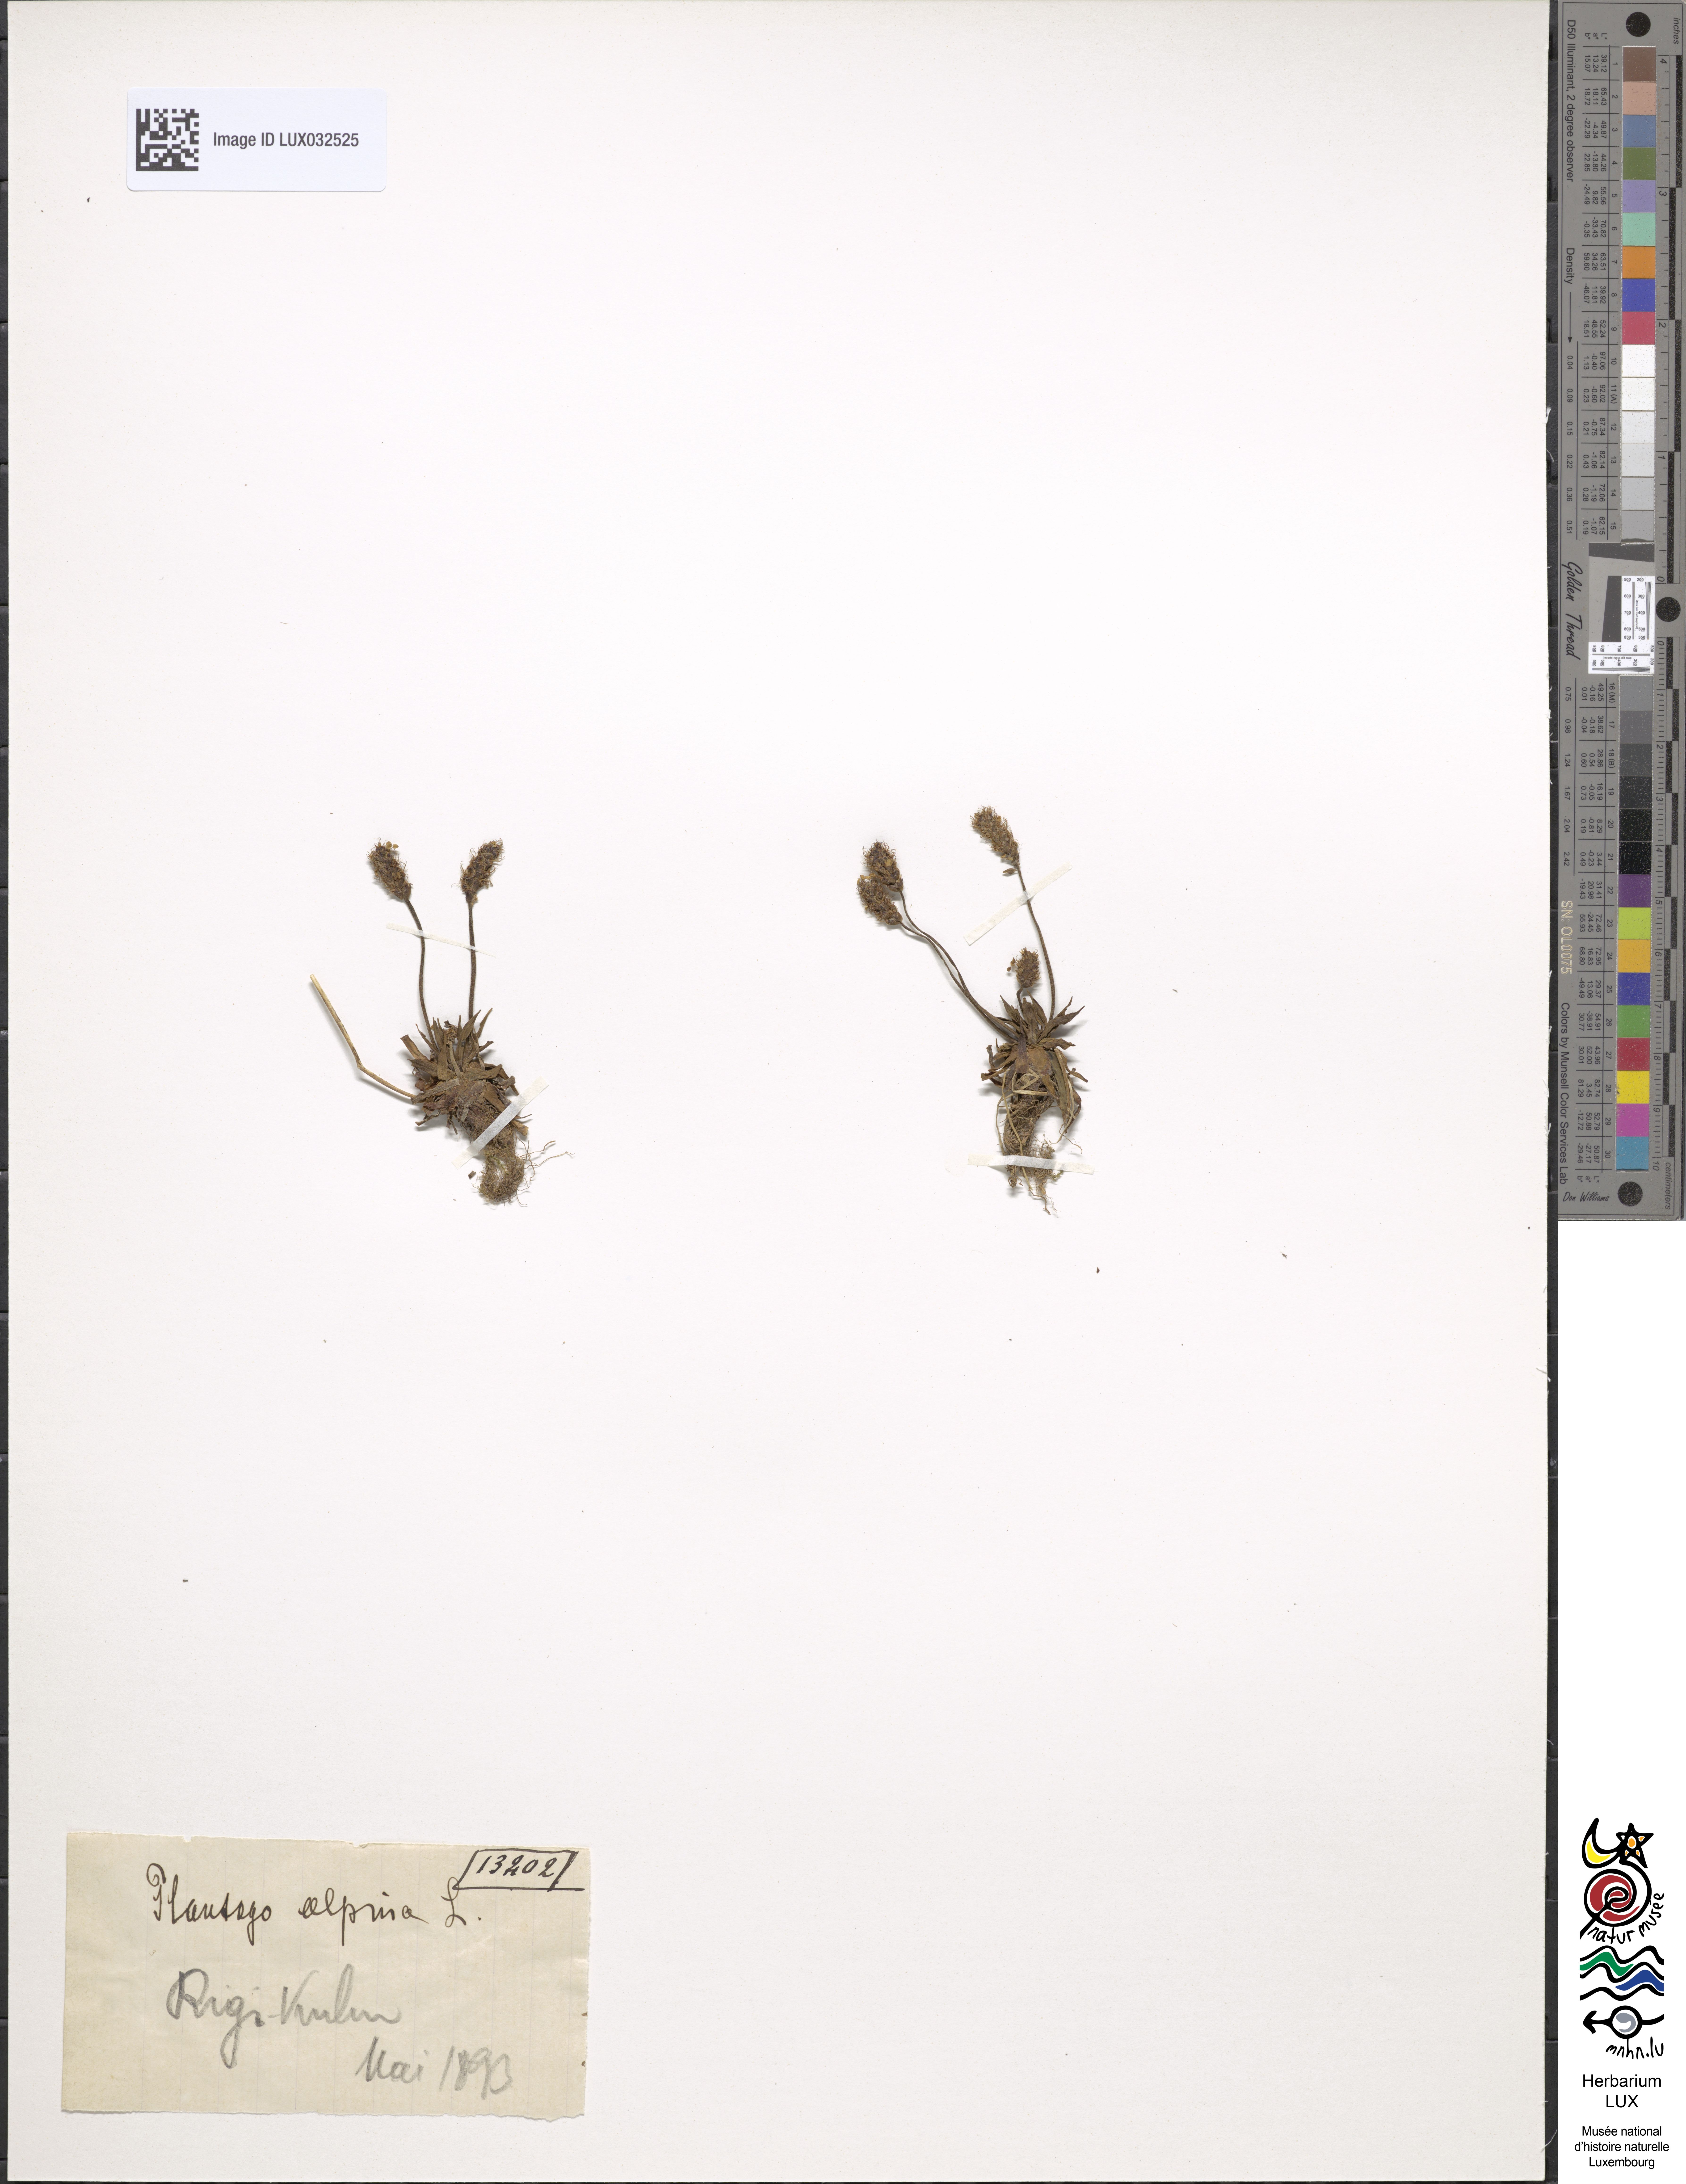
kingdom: Plantae
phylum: Tracheophyta
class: Magnoliopsida
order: Lamiales
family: Plantaginaceae
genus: Plantago
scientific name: Plantago alpina
